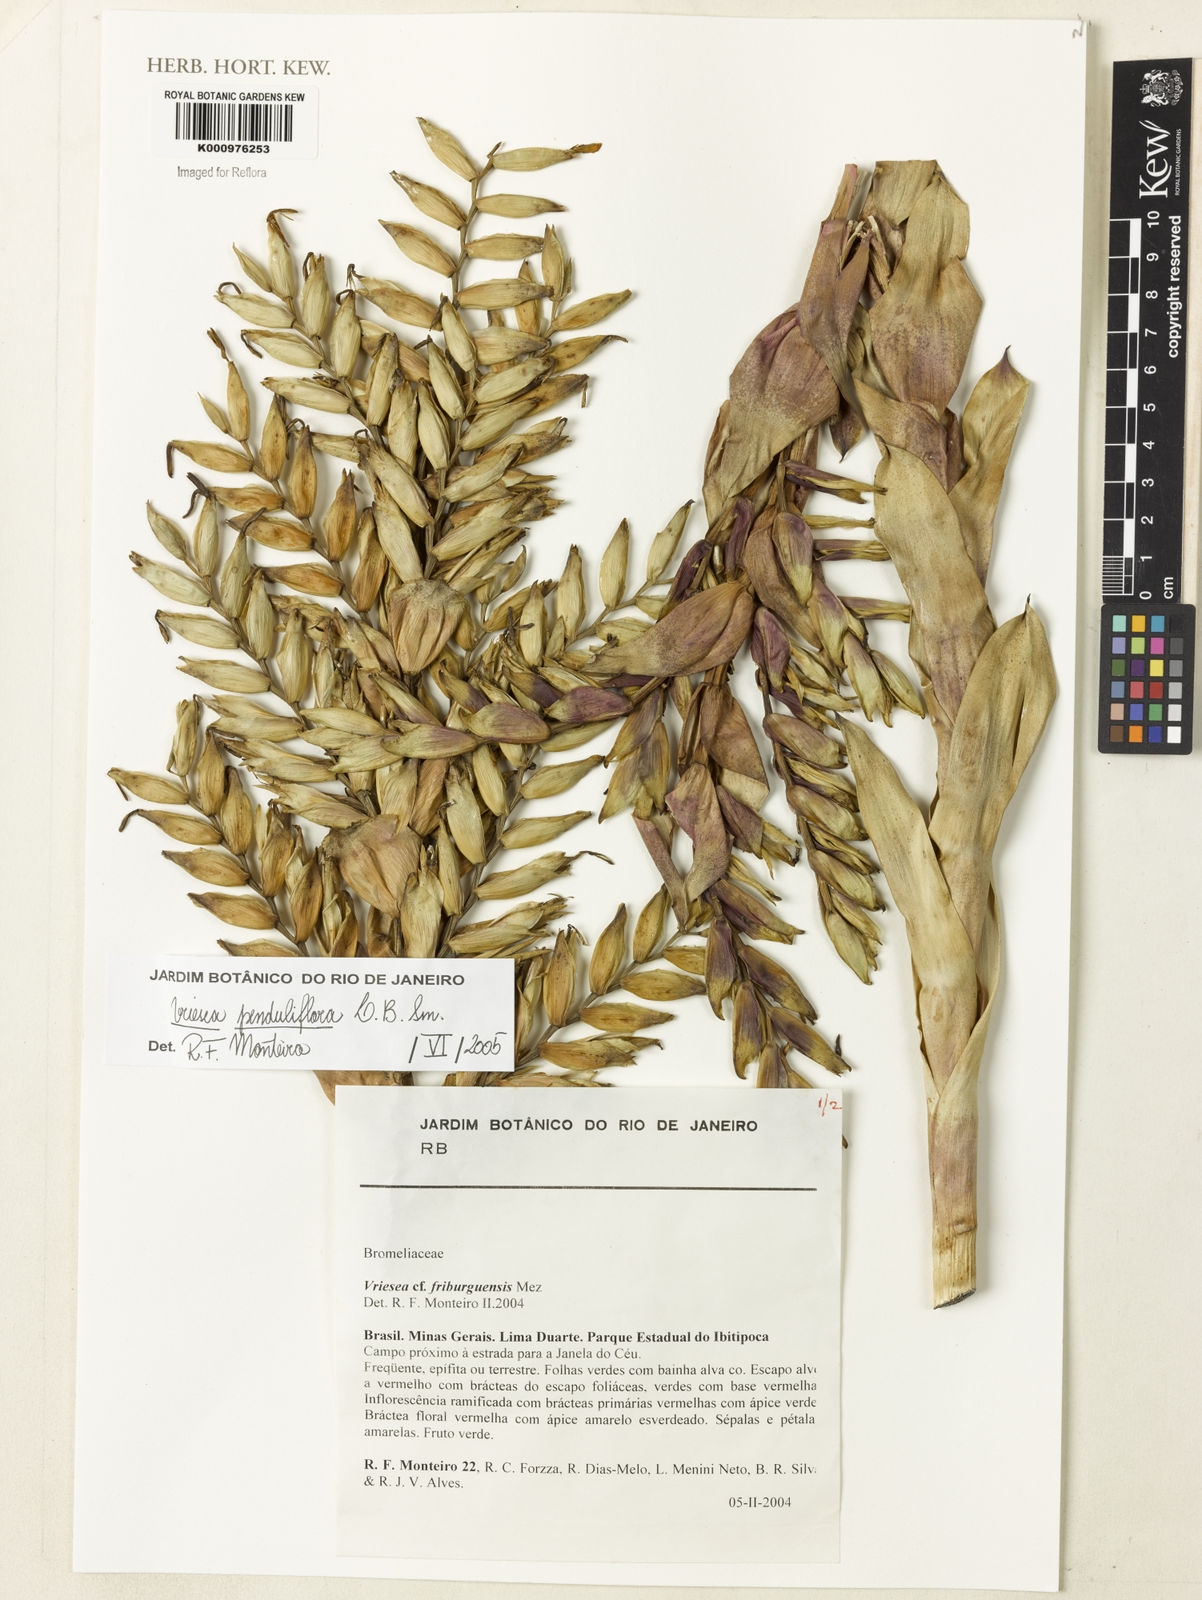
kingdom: Plantae
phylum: Tracheophyta
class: Liliopsida
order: Poales
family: Bromeliaceae
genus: Vriesea
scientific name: Vriesea penduliflora
